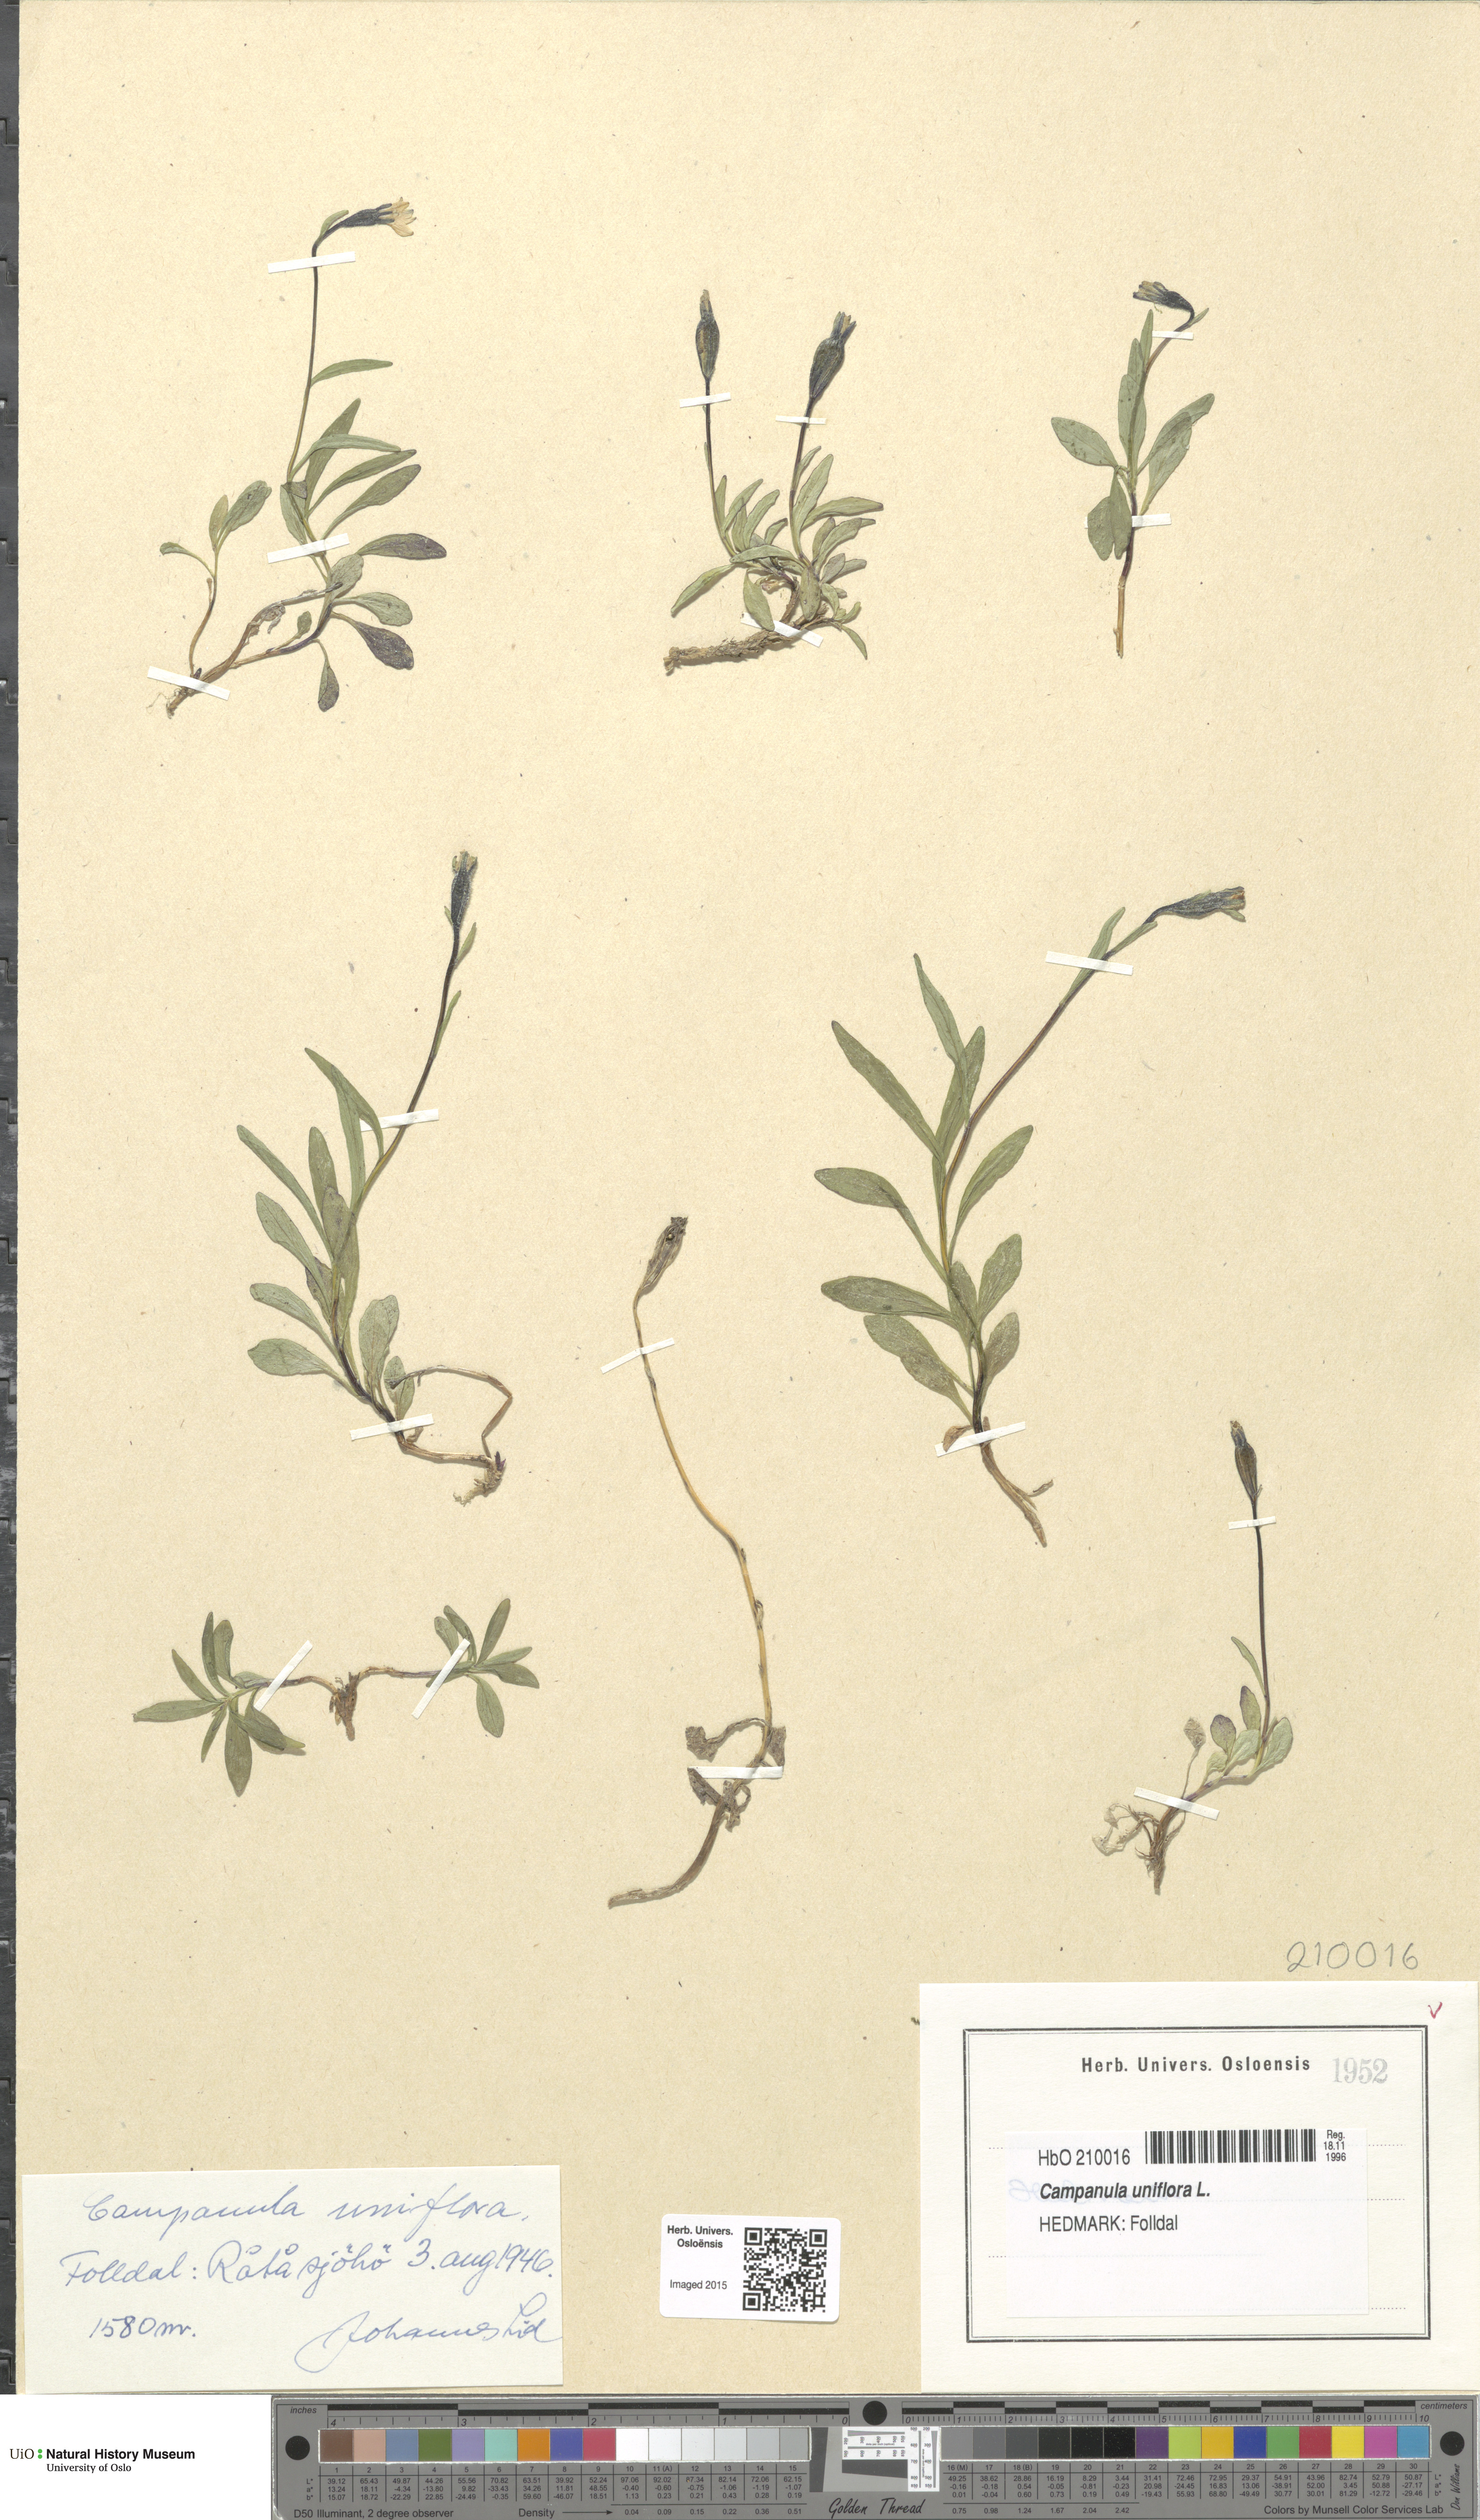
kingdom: Plantae
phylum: Tracheophyta
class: Magnoliopsida
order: Asterales
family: Campanulaceae
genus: Melanocalyx
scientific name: Melanocalyx uniflora
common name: Alpine harebell
